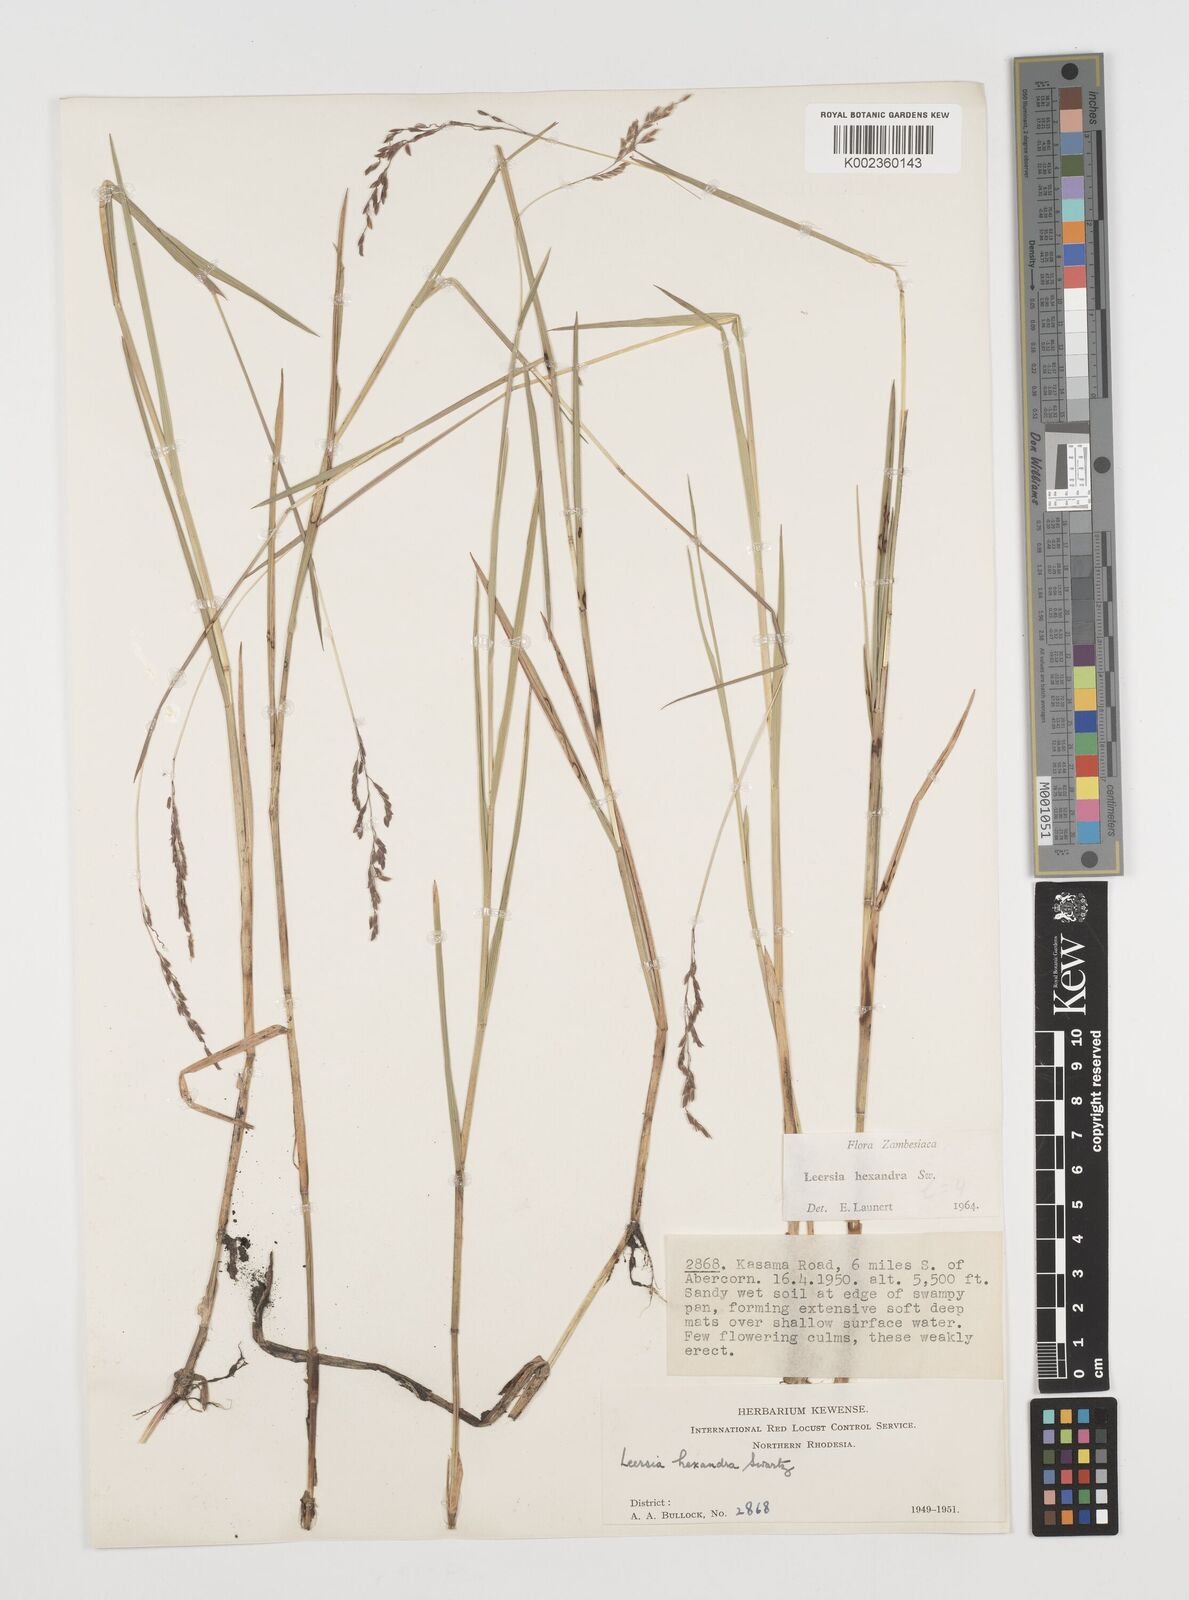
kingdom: Plantae
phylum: Tracheophyta
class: Liliopsida
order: Poales
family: Poaceae
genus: Leersia
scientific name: Leersia hexandra
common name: Southern cut grass
